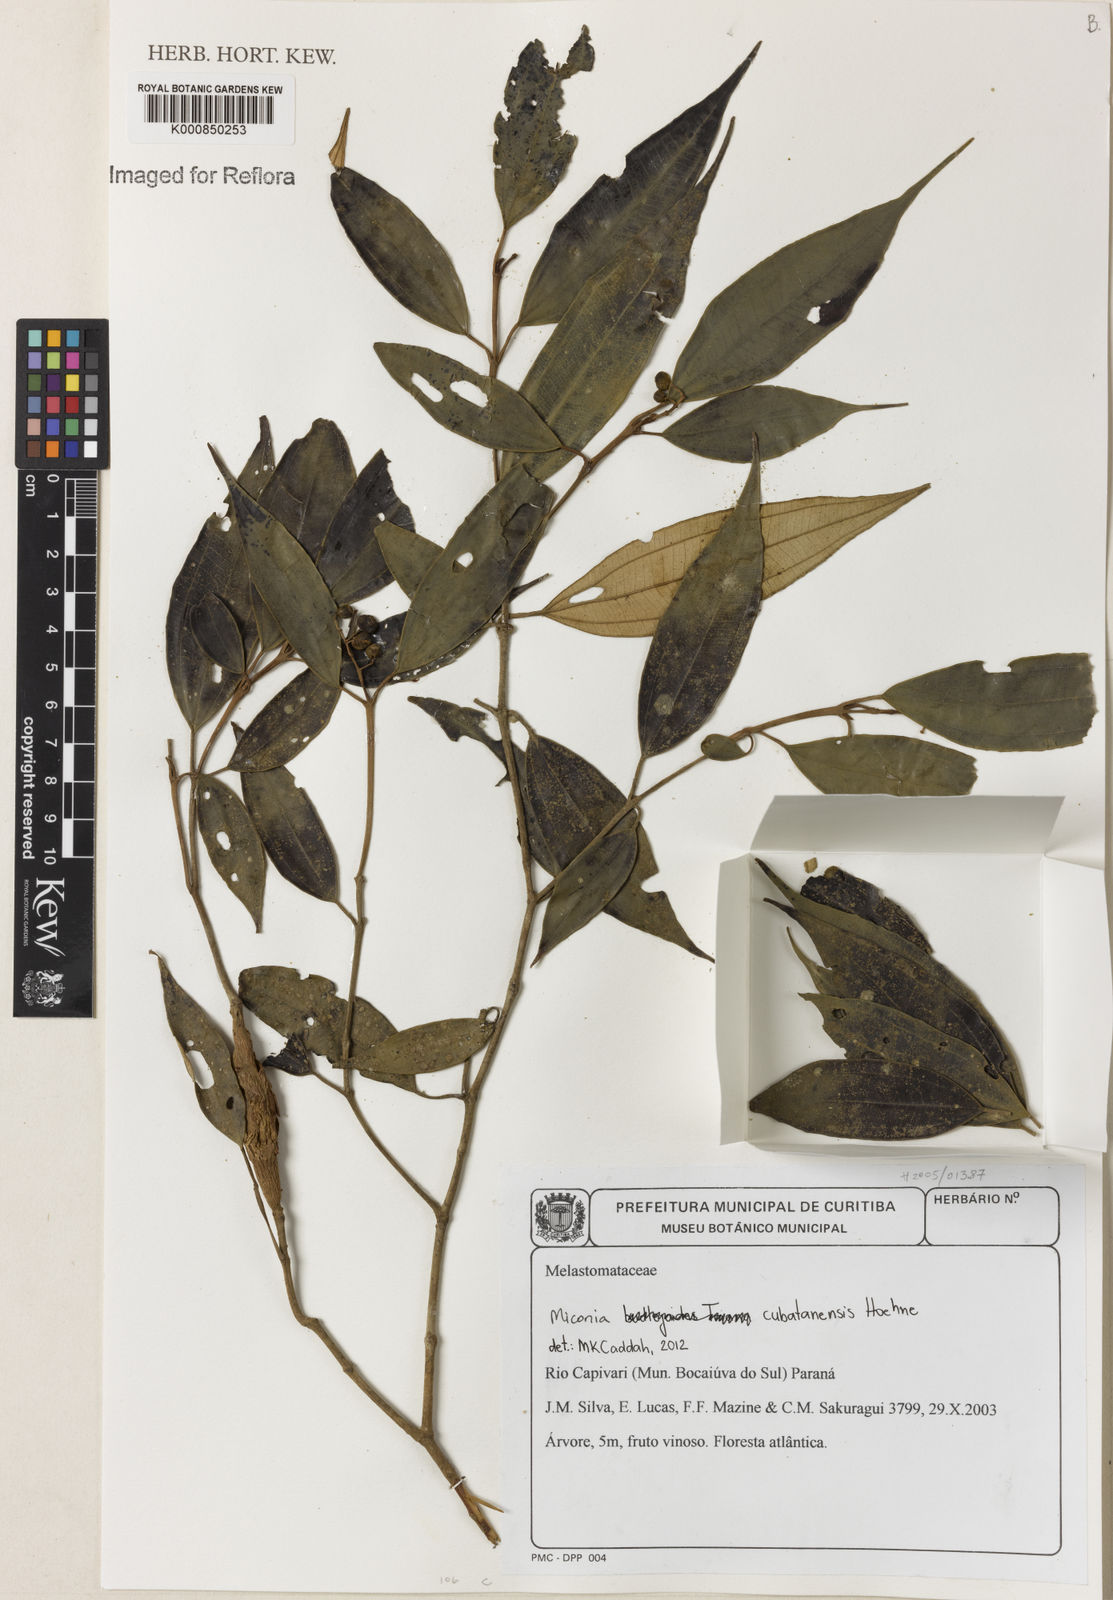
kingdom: Plantae
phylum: Tracheophyta
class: Magnoliopsida
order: Myrtales
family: Melastomataceae
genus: Miconia
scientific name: Miconia cubatanensis
